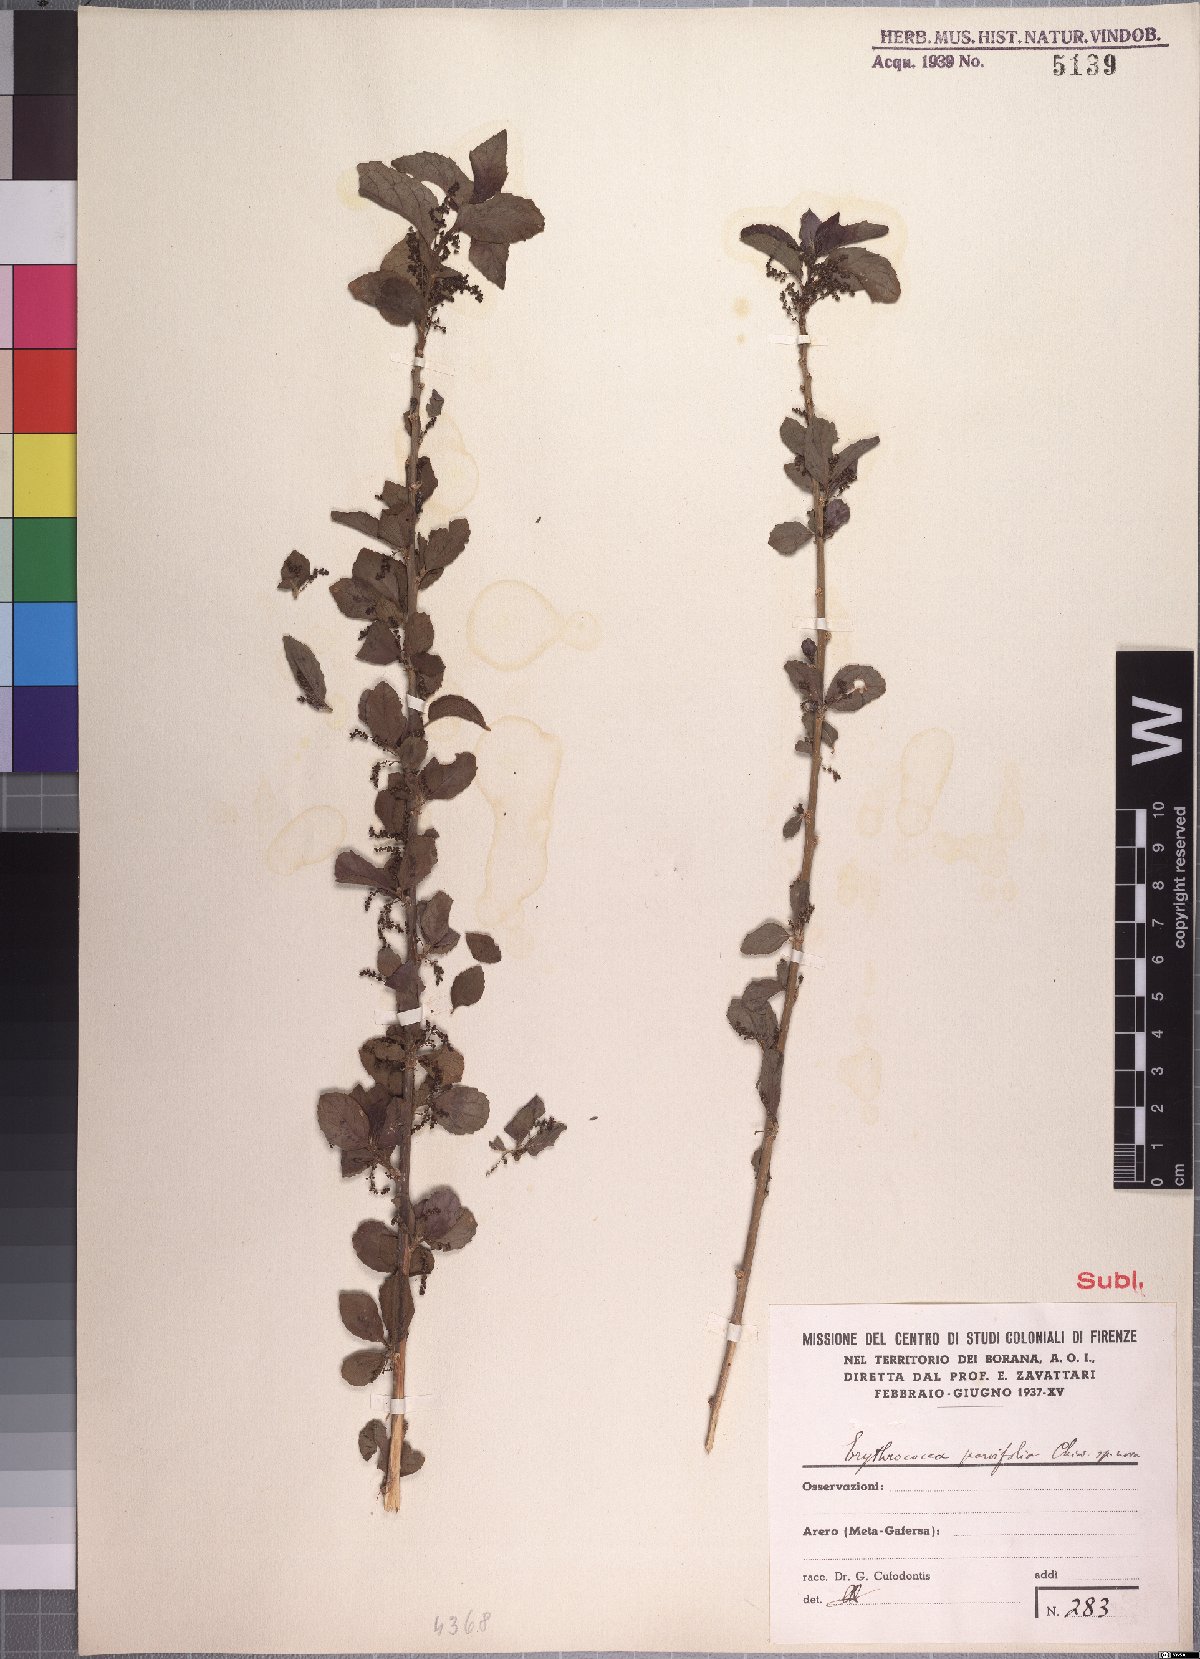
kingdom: Plantae
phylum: Tracheophyta
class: Magnoliopsida
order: Malpighiales
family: Euphorbiaceae
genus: Erythrococca
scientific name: Erythrococca abyssinica
